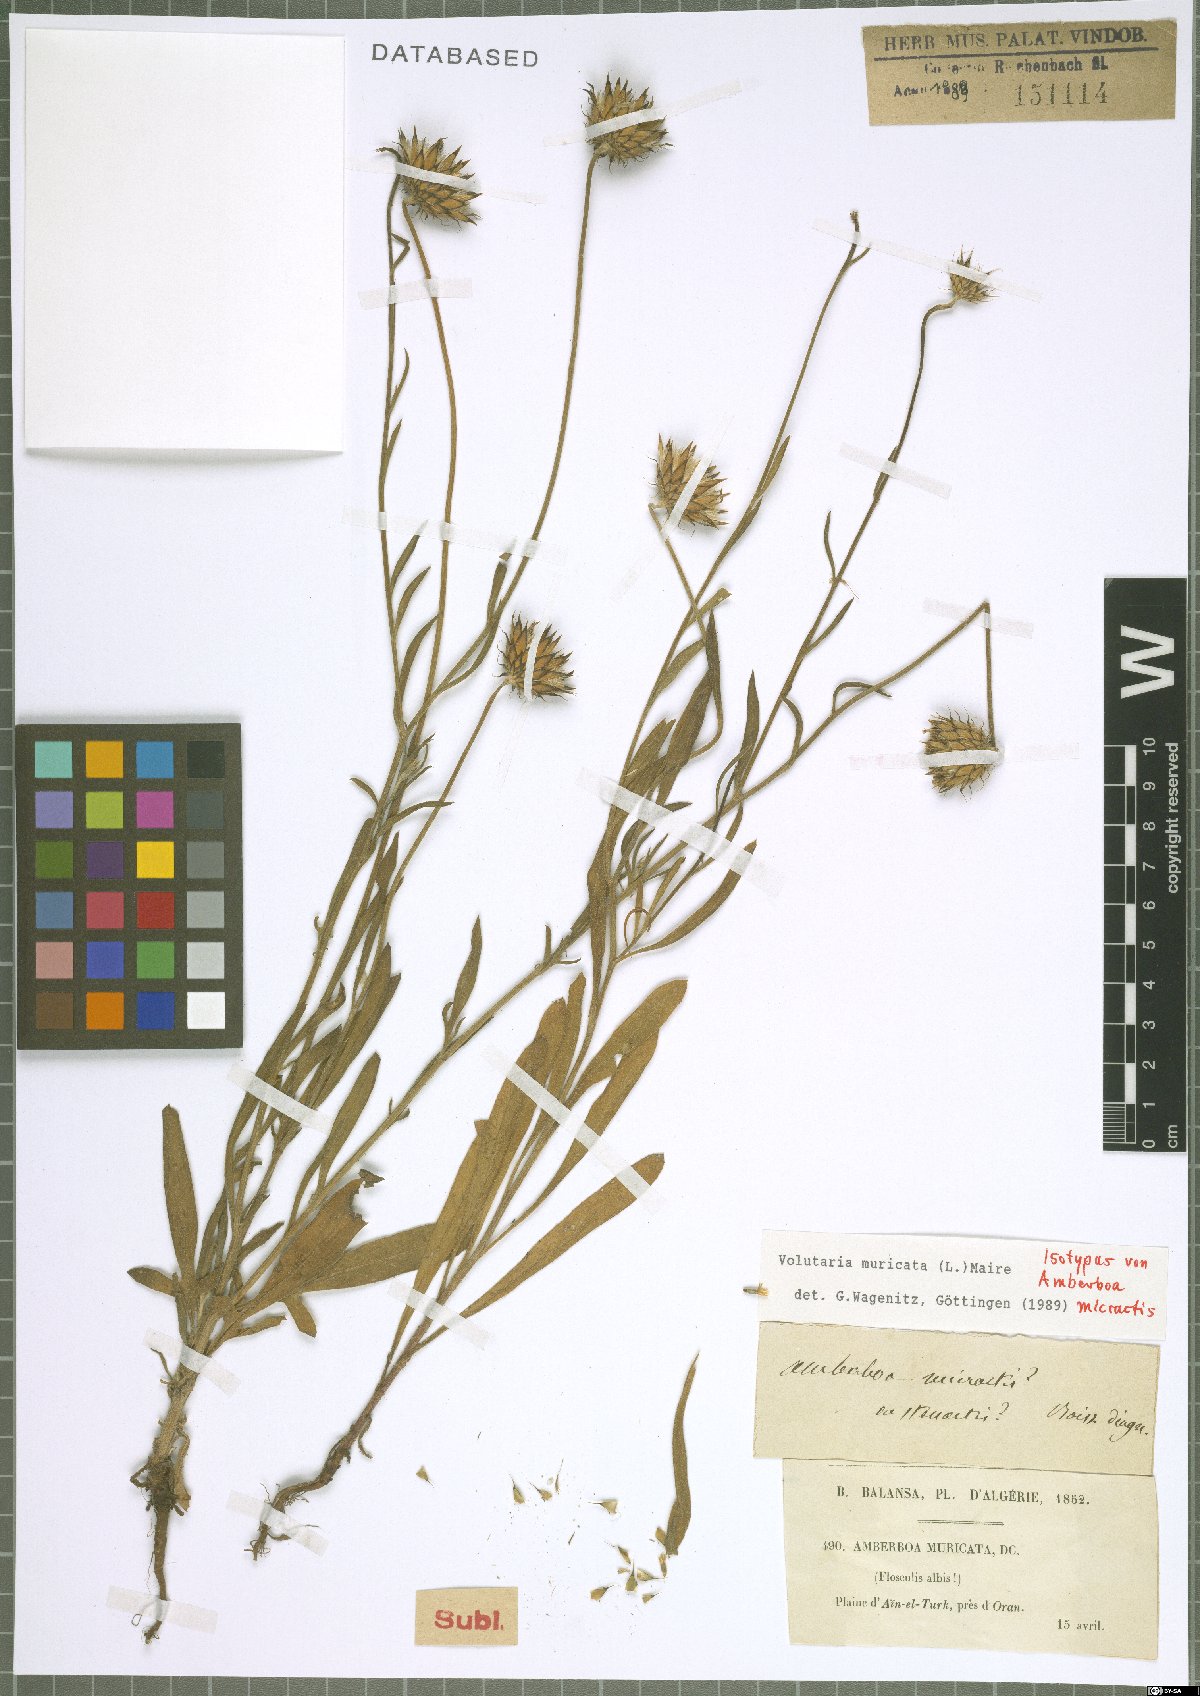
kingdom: Plantae
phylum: Tracheophyta
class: Magnoliopsida
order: Asterales
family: Asteraceae
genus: Volutaria
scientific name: Volutaria muricata
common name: Morocco knapweed
